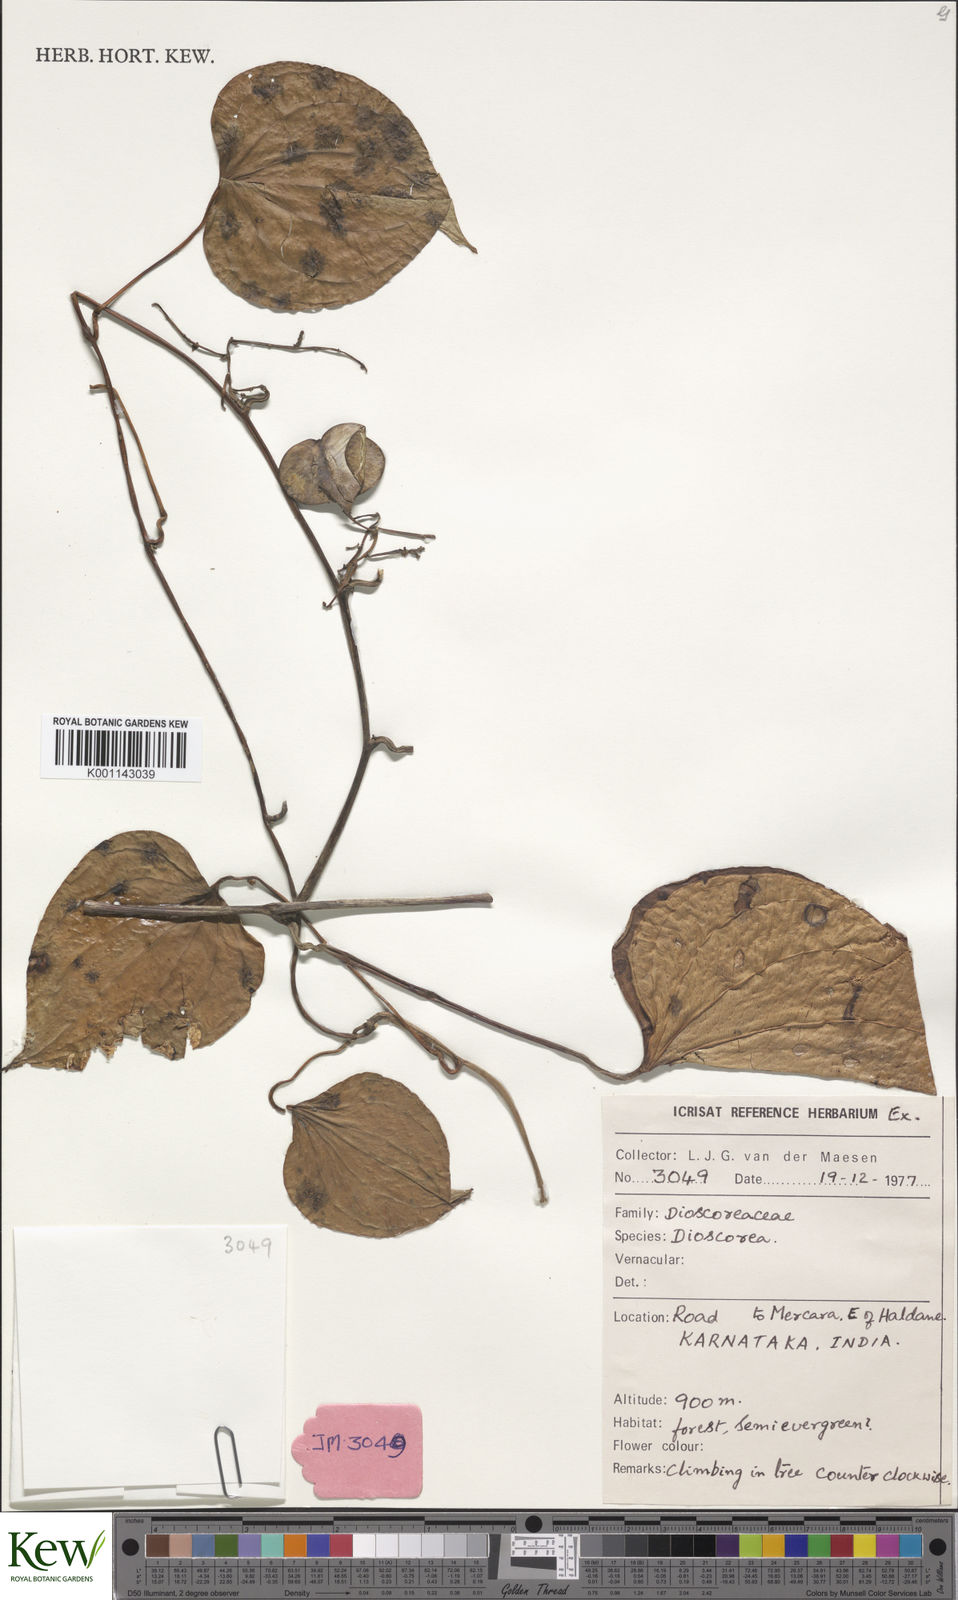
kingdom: Plantae
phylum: Tracheophyta
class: Liliopsida
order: Dioscoreales
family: Dioscoreaceae
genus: Dioscorea
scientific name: Dioscorea
